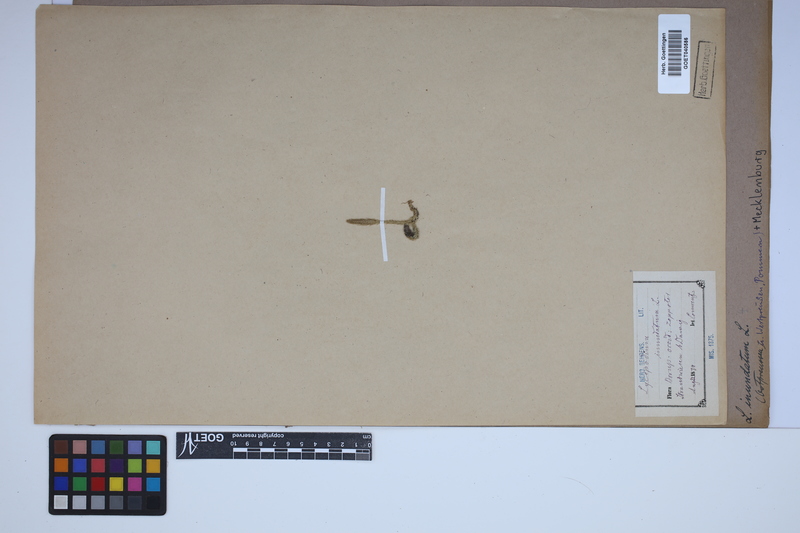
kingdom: Plantae
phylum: Tracheophyta
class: Lycopodiopsida
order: Lycopodiales
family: Lycopodiaceae
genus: Lycopodiella
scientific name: Lycopodiella inundata
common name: Marsh clubmoss
